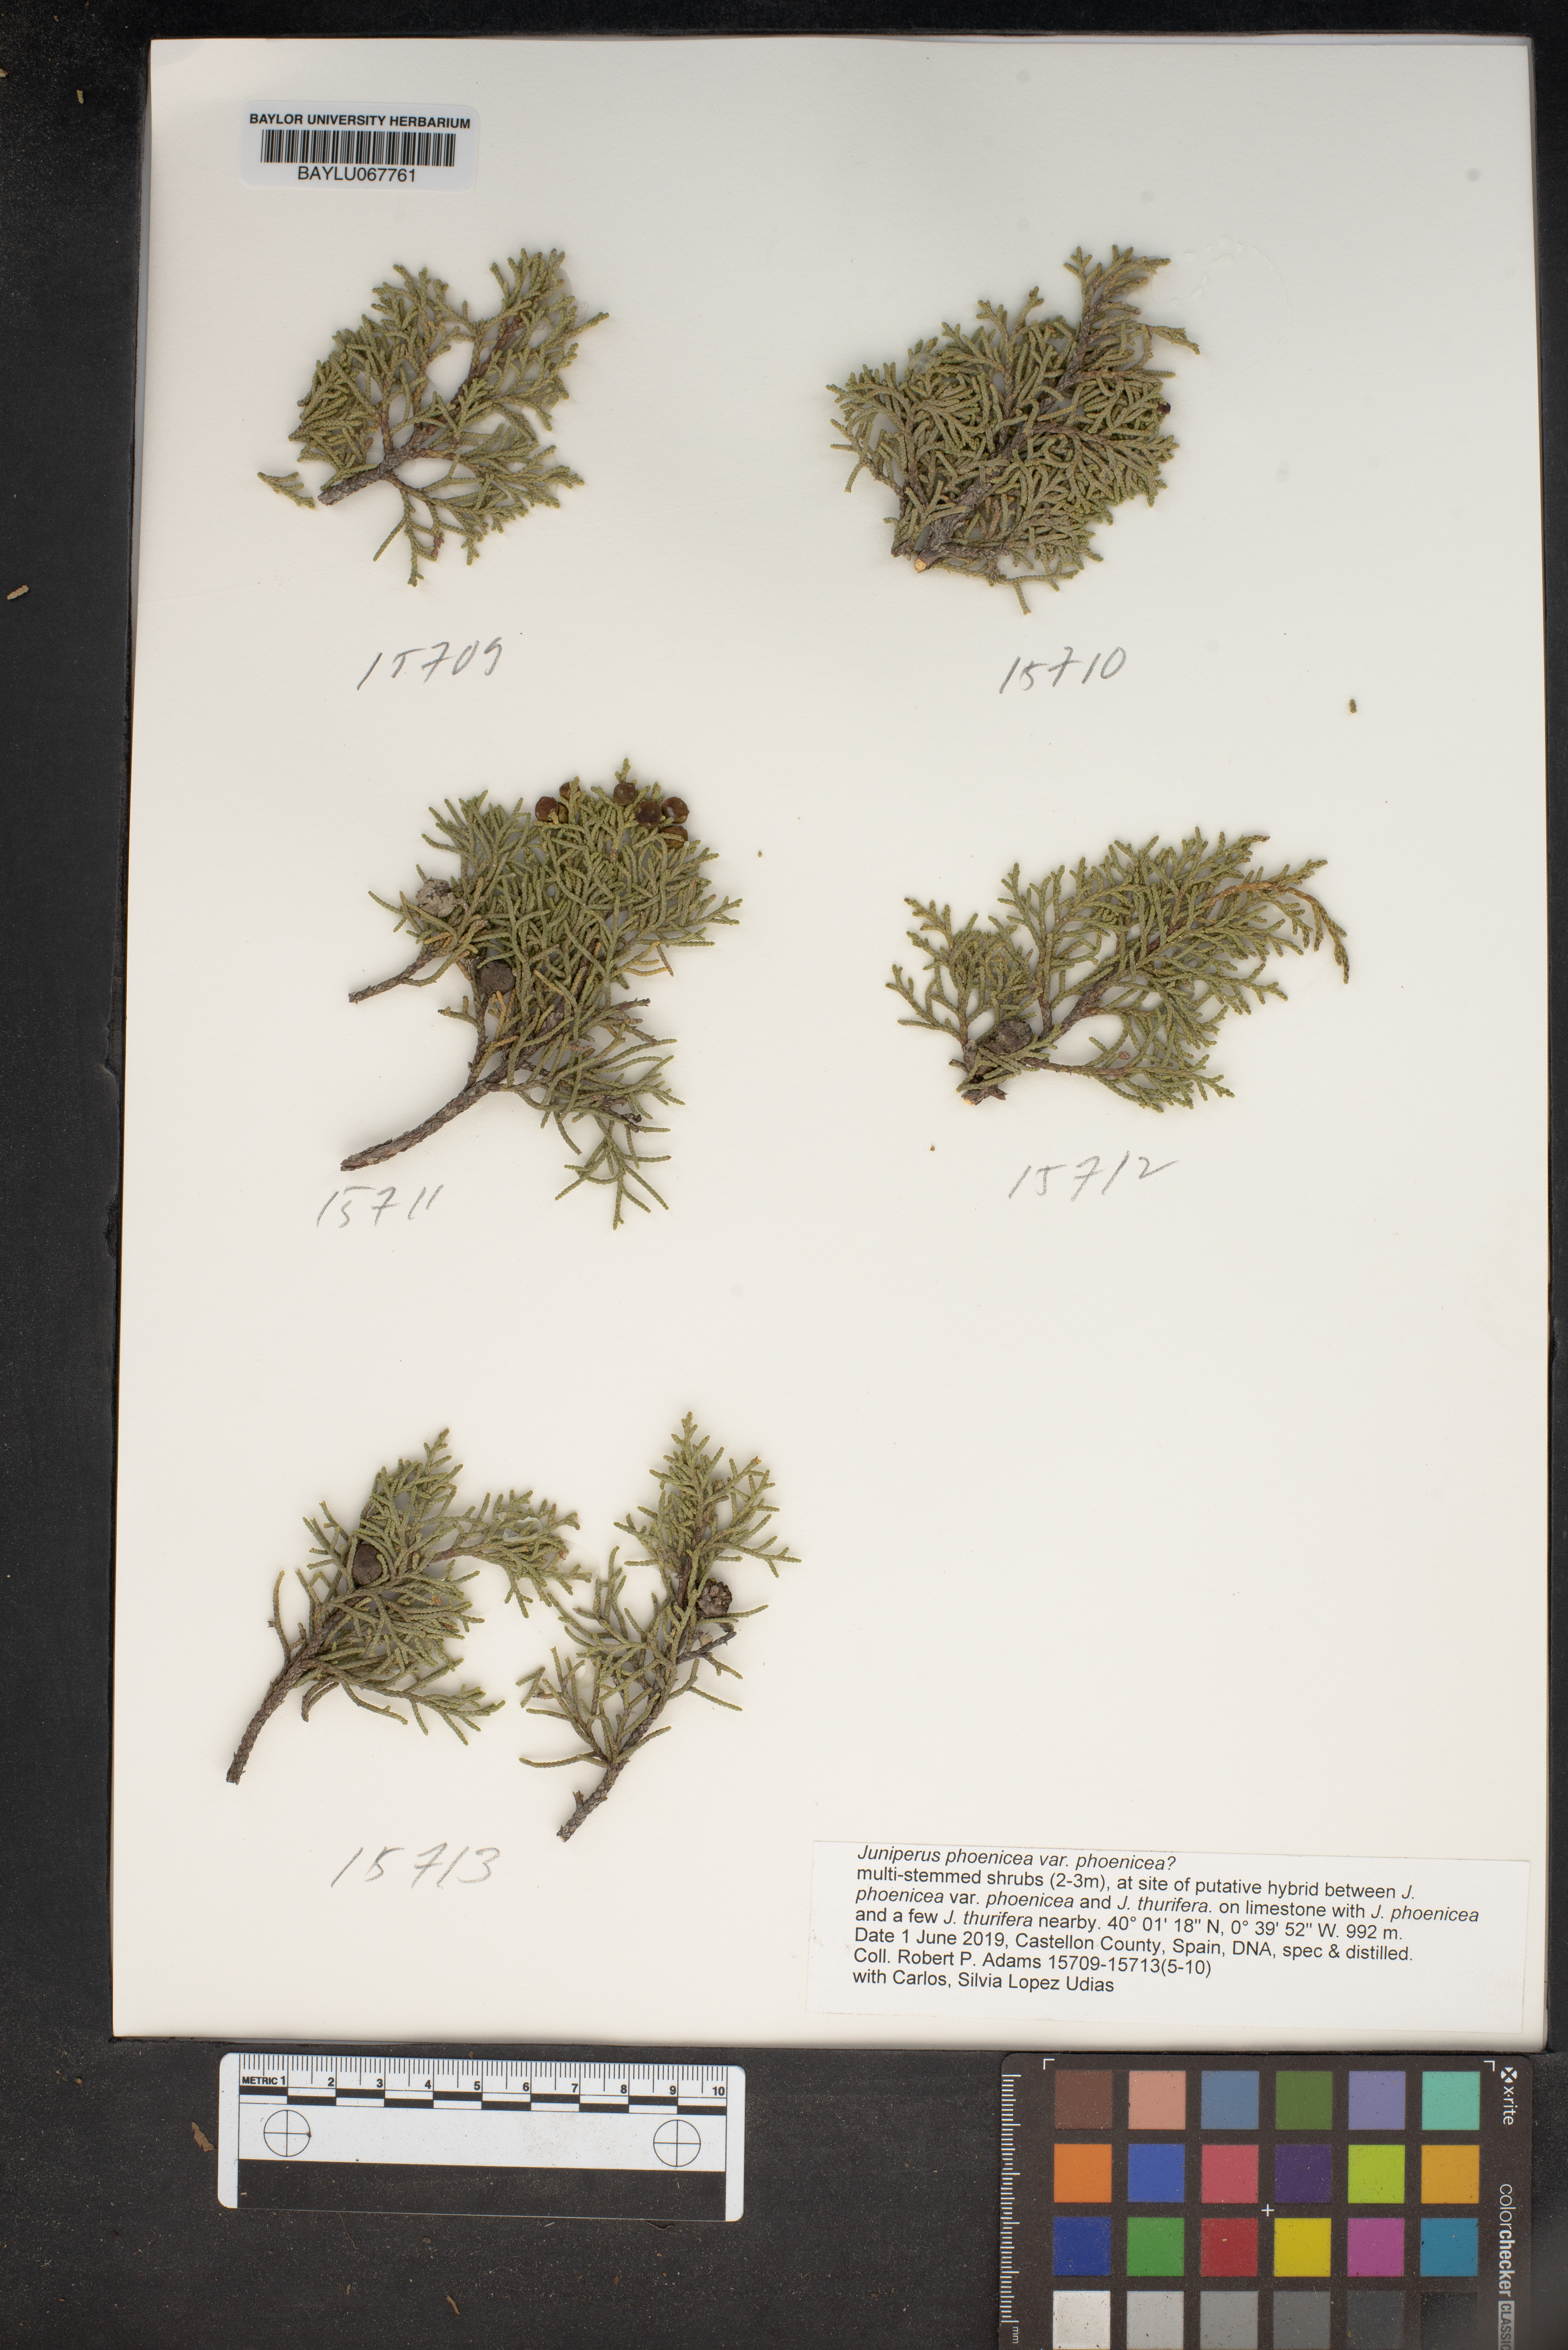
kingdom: Plantae
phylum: Tracheophyta
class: Pinopsida
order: Pinales
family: Cupressaceae
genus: Juniperus
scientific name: Juniperus phoenicea
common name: Phoenician juniper
